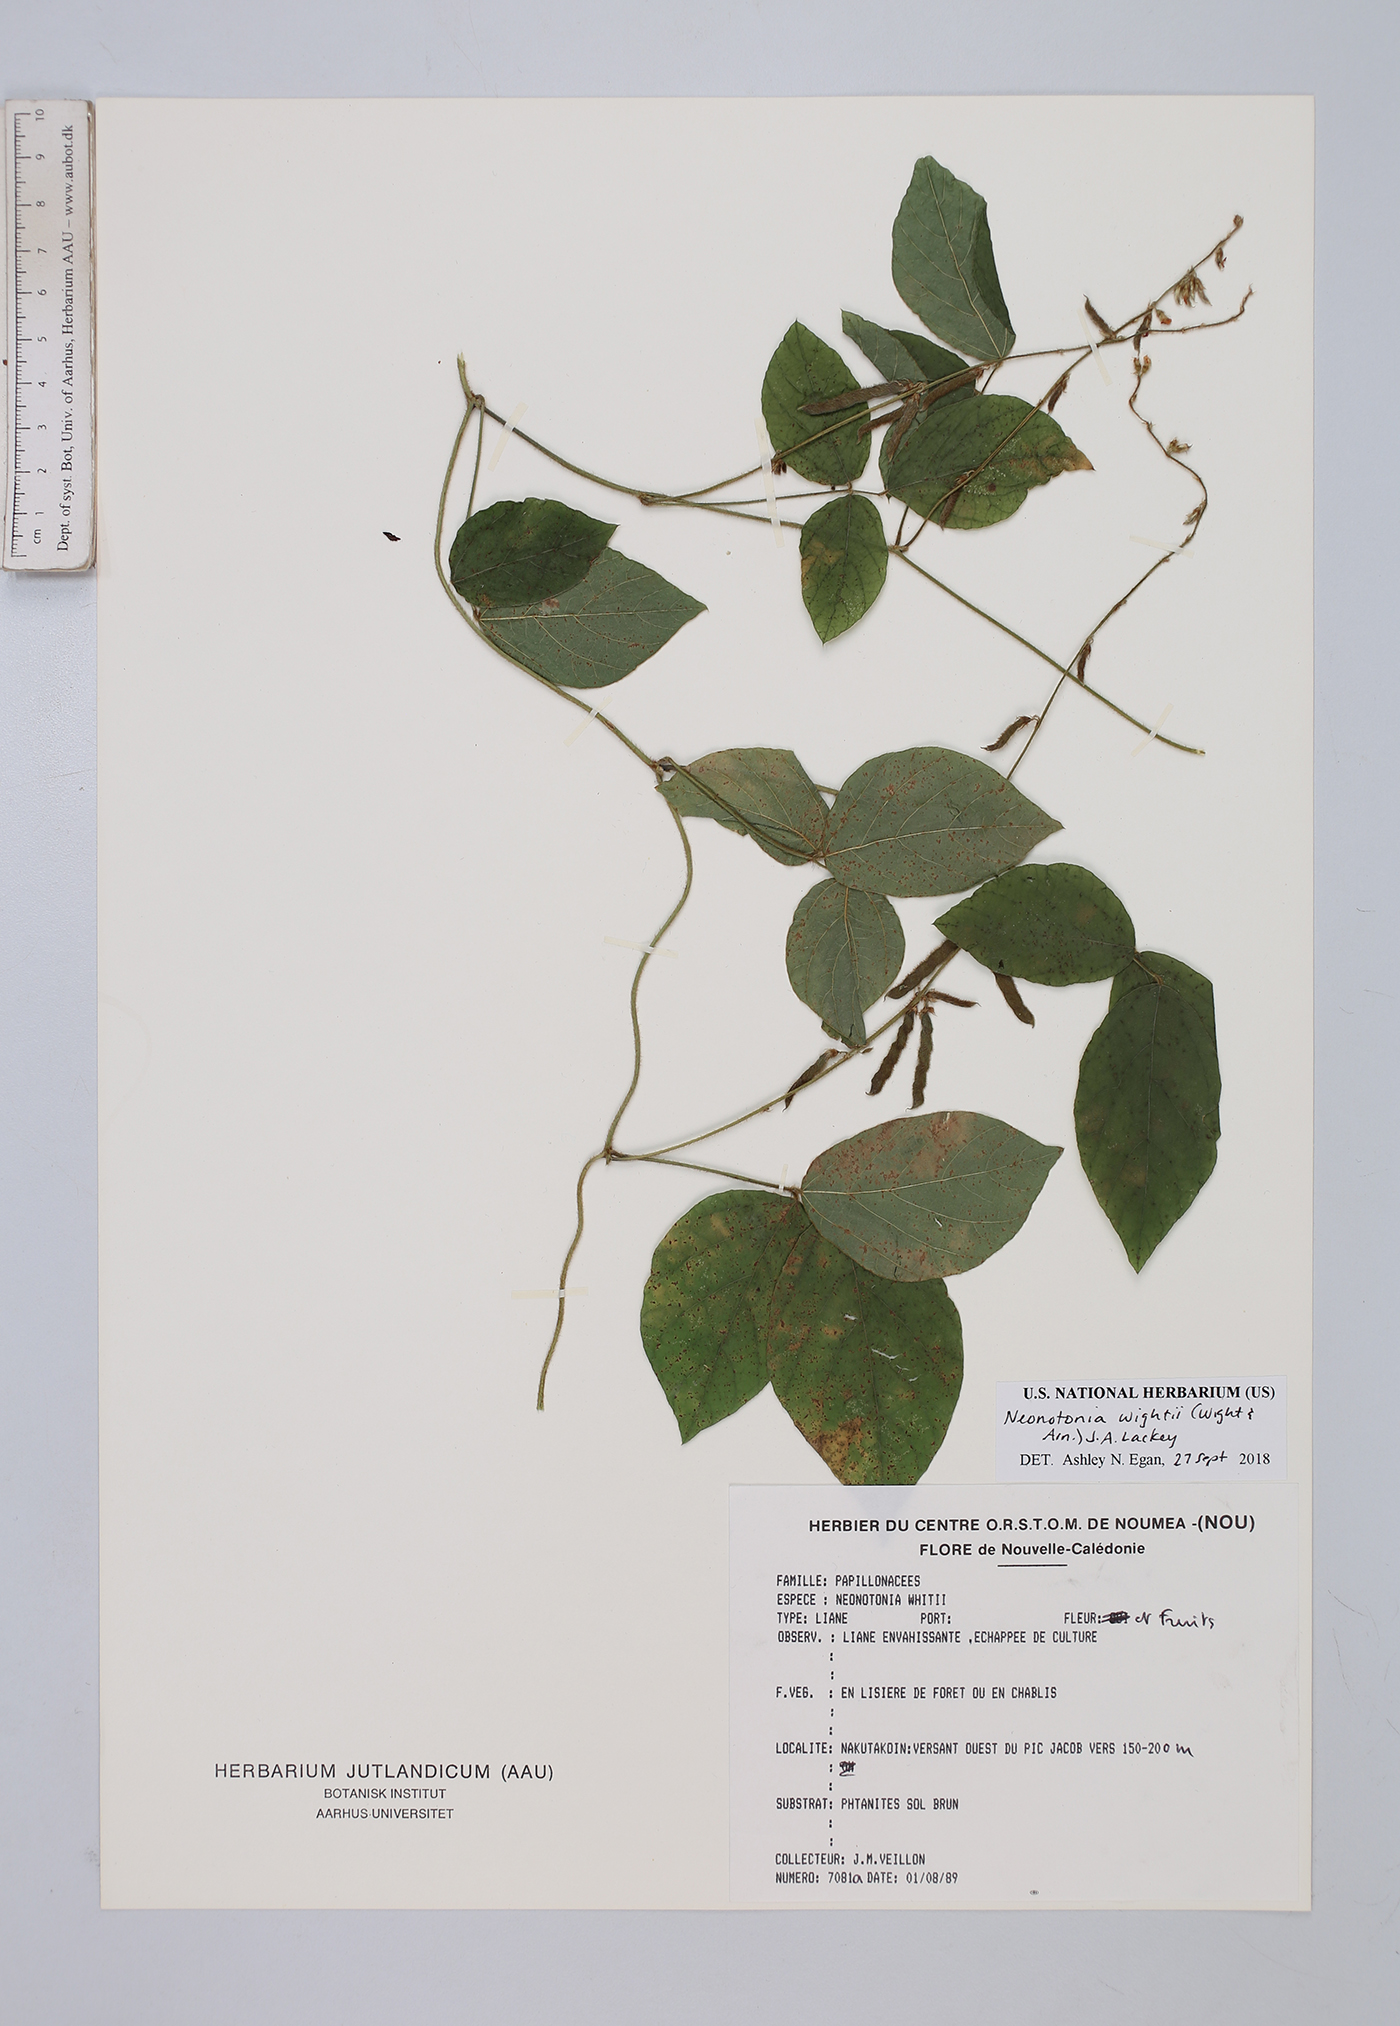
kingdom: Plantae
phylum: Tracheophyta
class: Magnoliopsida
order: Fabales
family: Fabaceae
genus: Neonotonia
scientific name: Neonotonia wightii
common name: Perennial soybean
